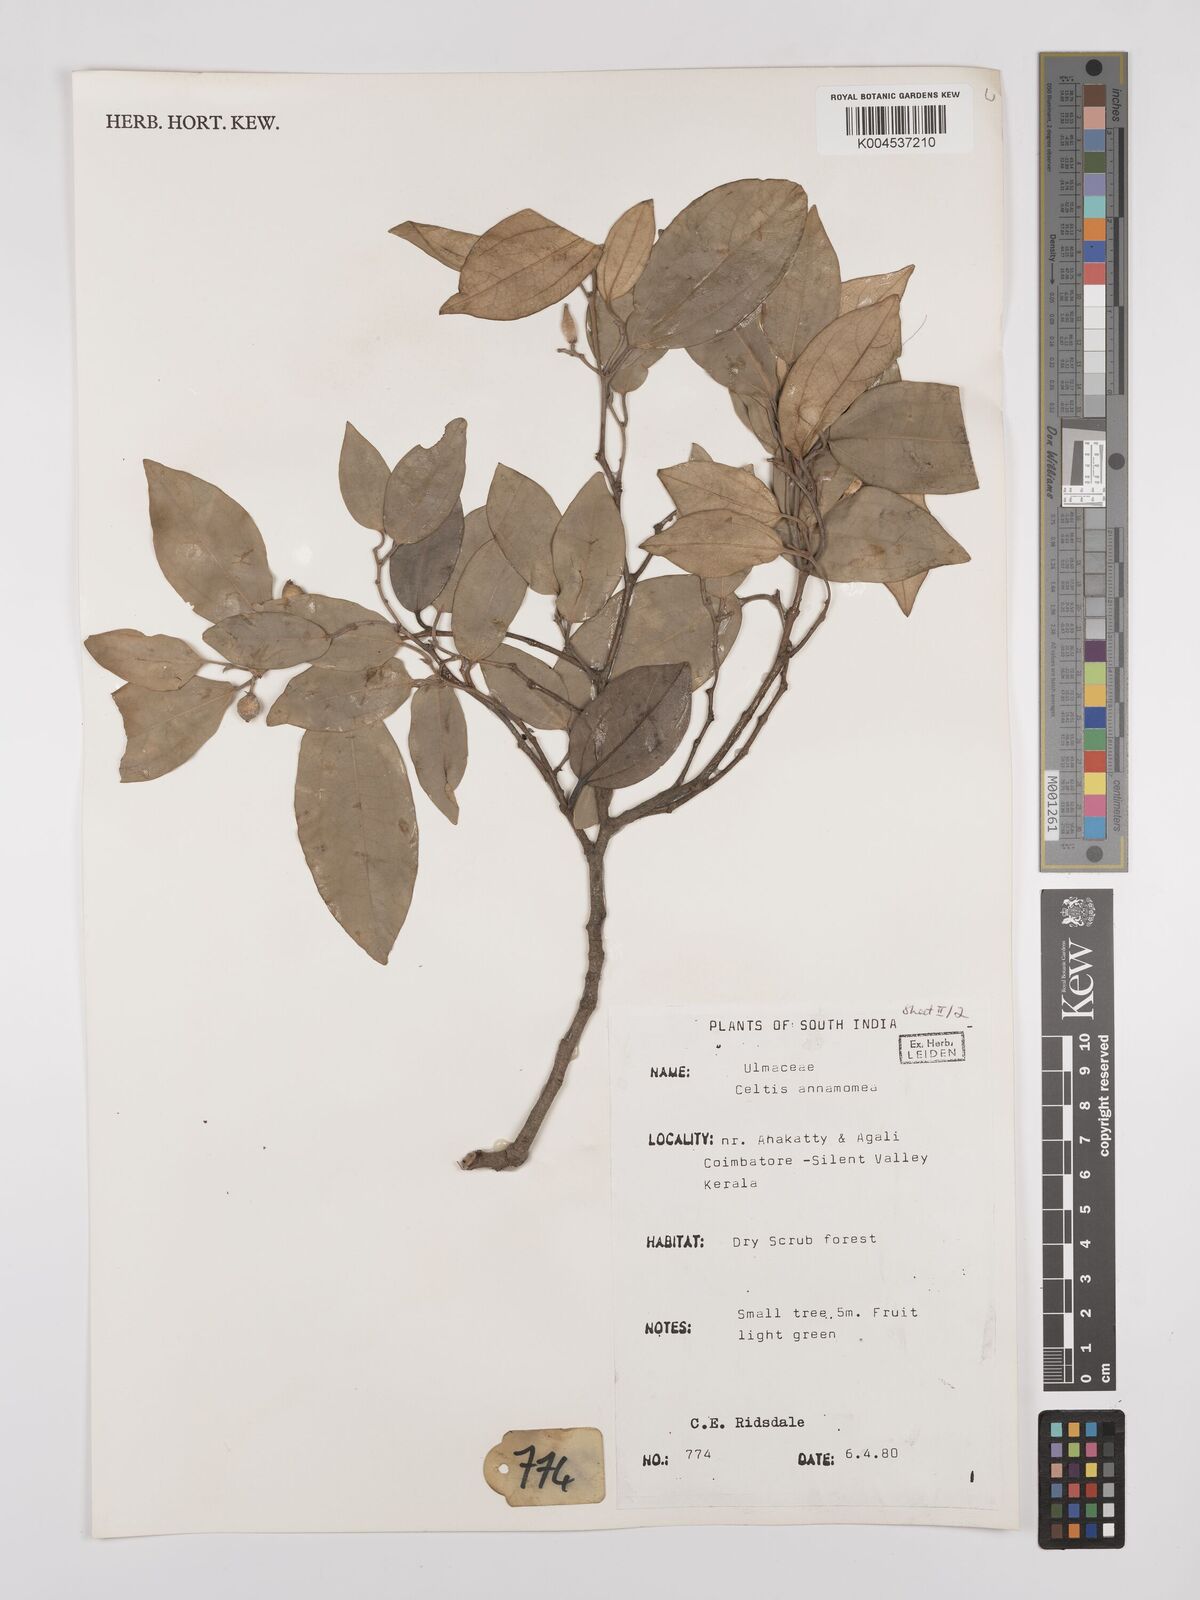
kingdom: Plantae
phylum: Tracheophyta
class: Magnoliopsida
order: Rosales
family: Cannabaceae
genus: Celtis
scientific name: Celtis timorensis
